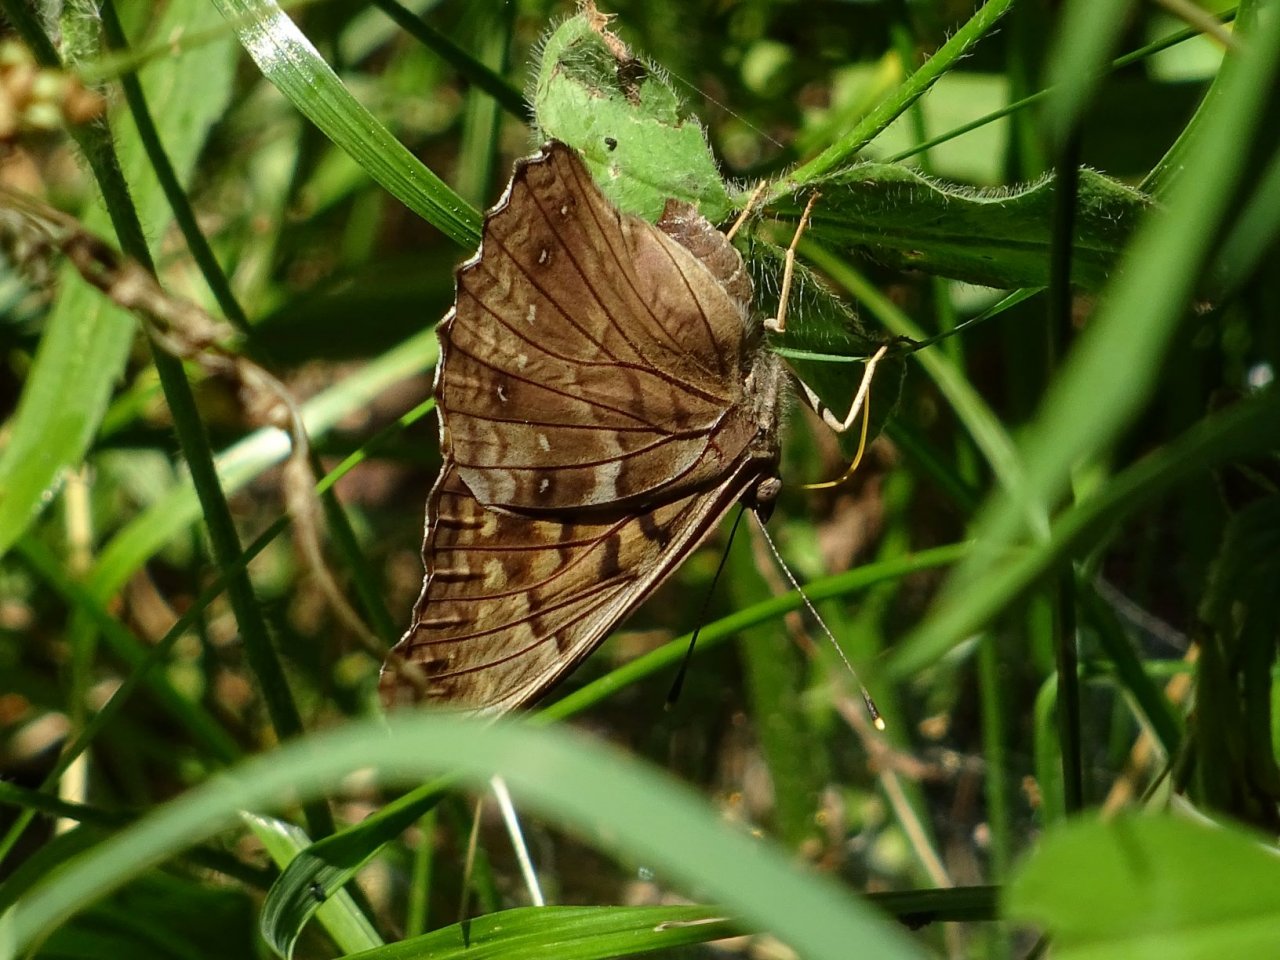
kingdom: Animalia
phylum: Arthropoda
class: Insecta
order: Lepidoptera
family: Nymphalidae
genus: Asterocampa
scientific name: Asterocampa clyton
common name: Tawny Emperor
